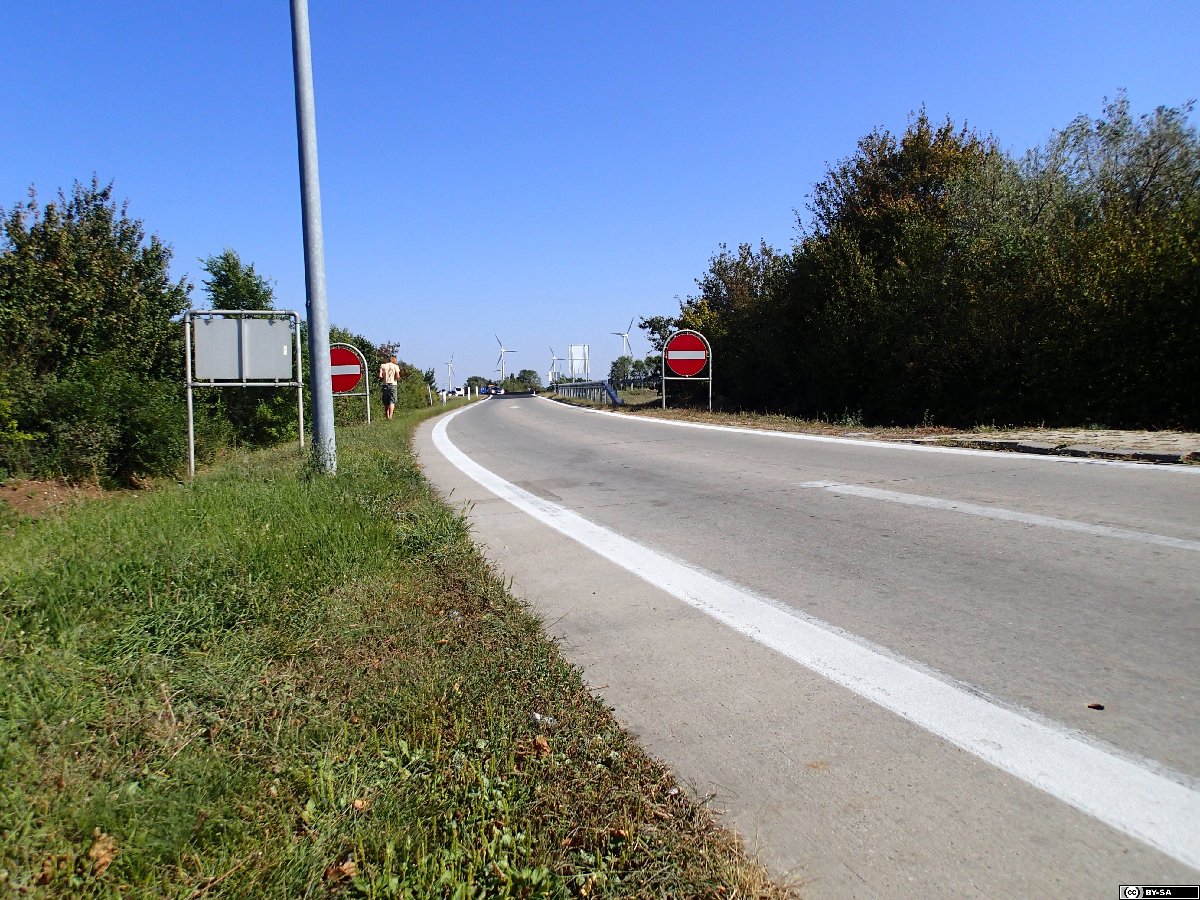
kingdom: Plantae
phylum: Tracheophyta
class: Liliopsida
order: Poales
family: Poaceae
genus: Sporobolus
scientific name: Sporobolus vaginiflorus
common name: Poverty dropseed
